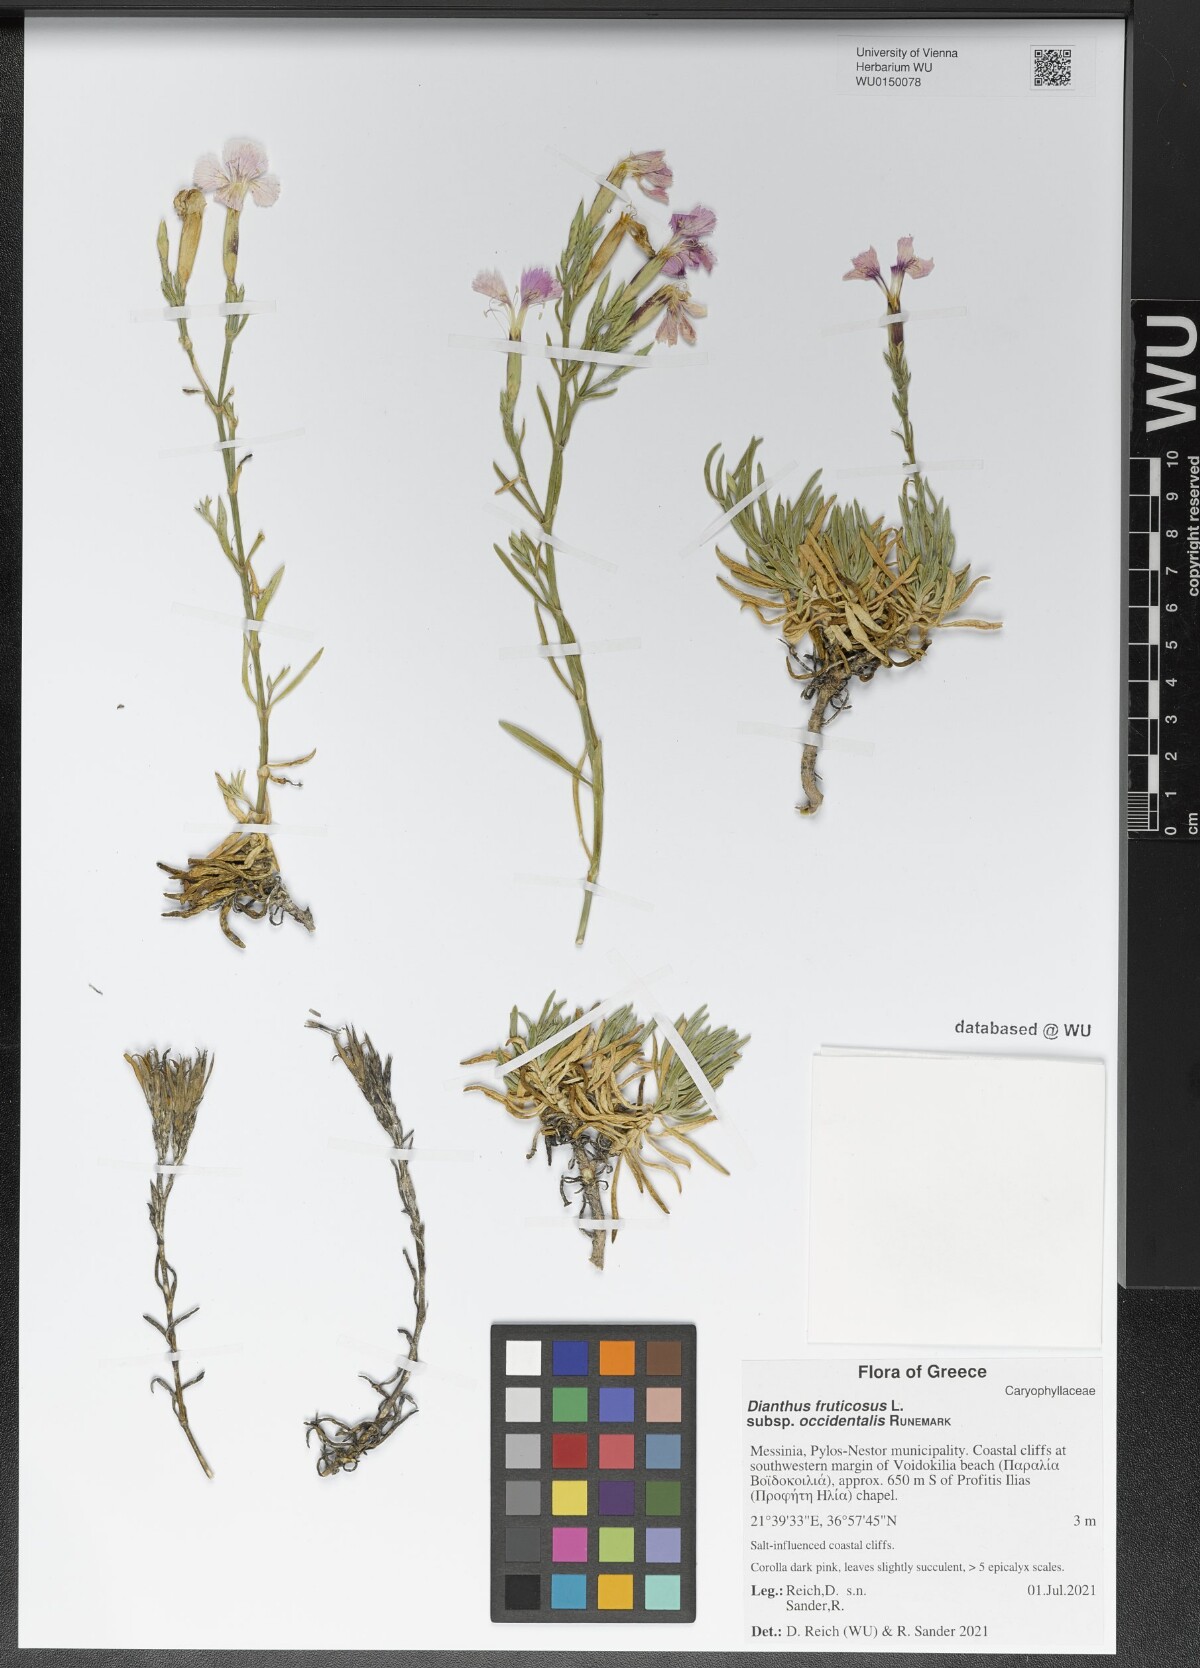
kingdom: Plantae
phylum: Tracheophyta
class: Magnoliopsida
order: Caryophyllales
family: Caryophyllaceae
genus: Dianthus
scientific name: Dianthus fruticosus
